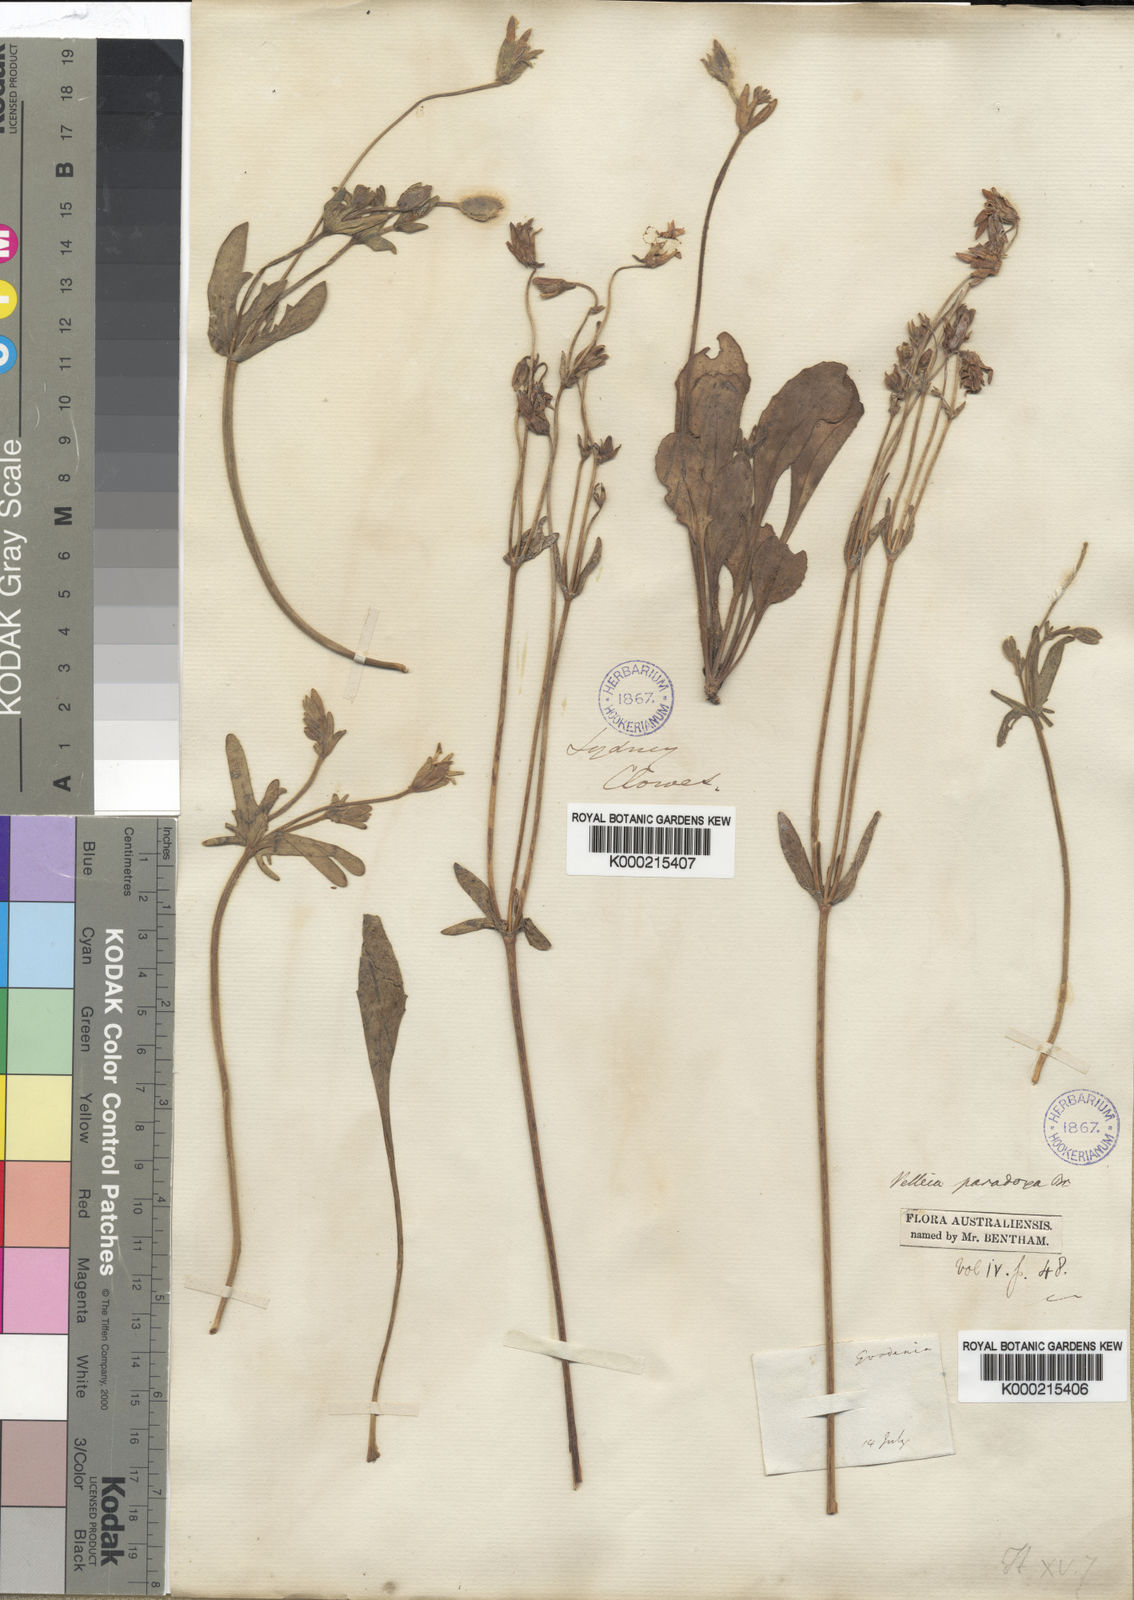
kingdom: Plantae
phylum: Tracheophyta
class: Magnoliopsida
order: Asterales
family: Goodeniaceae
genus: Goodenia
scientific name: Goodenia paradoxa
